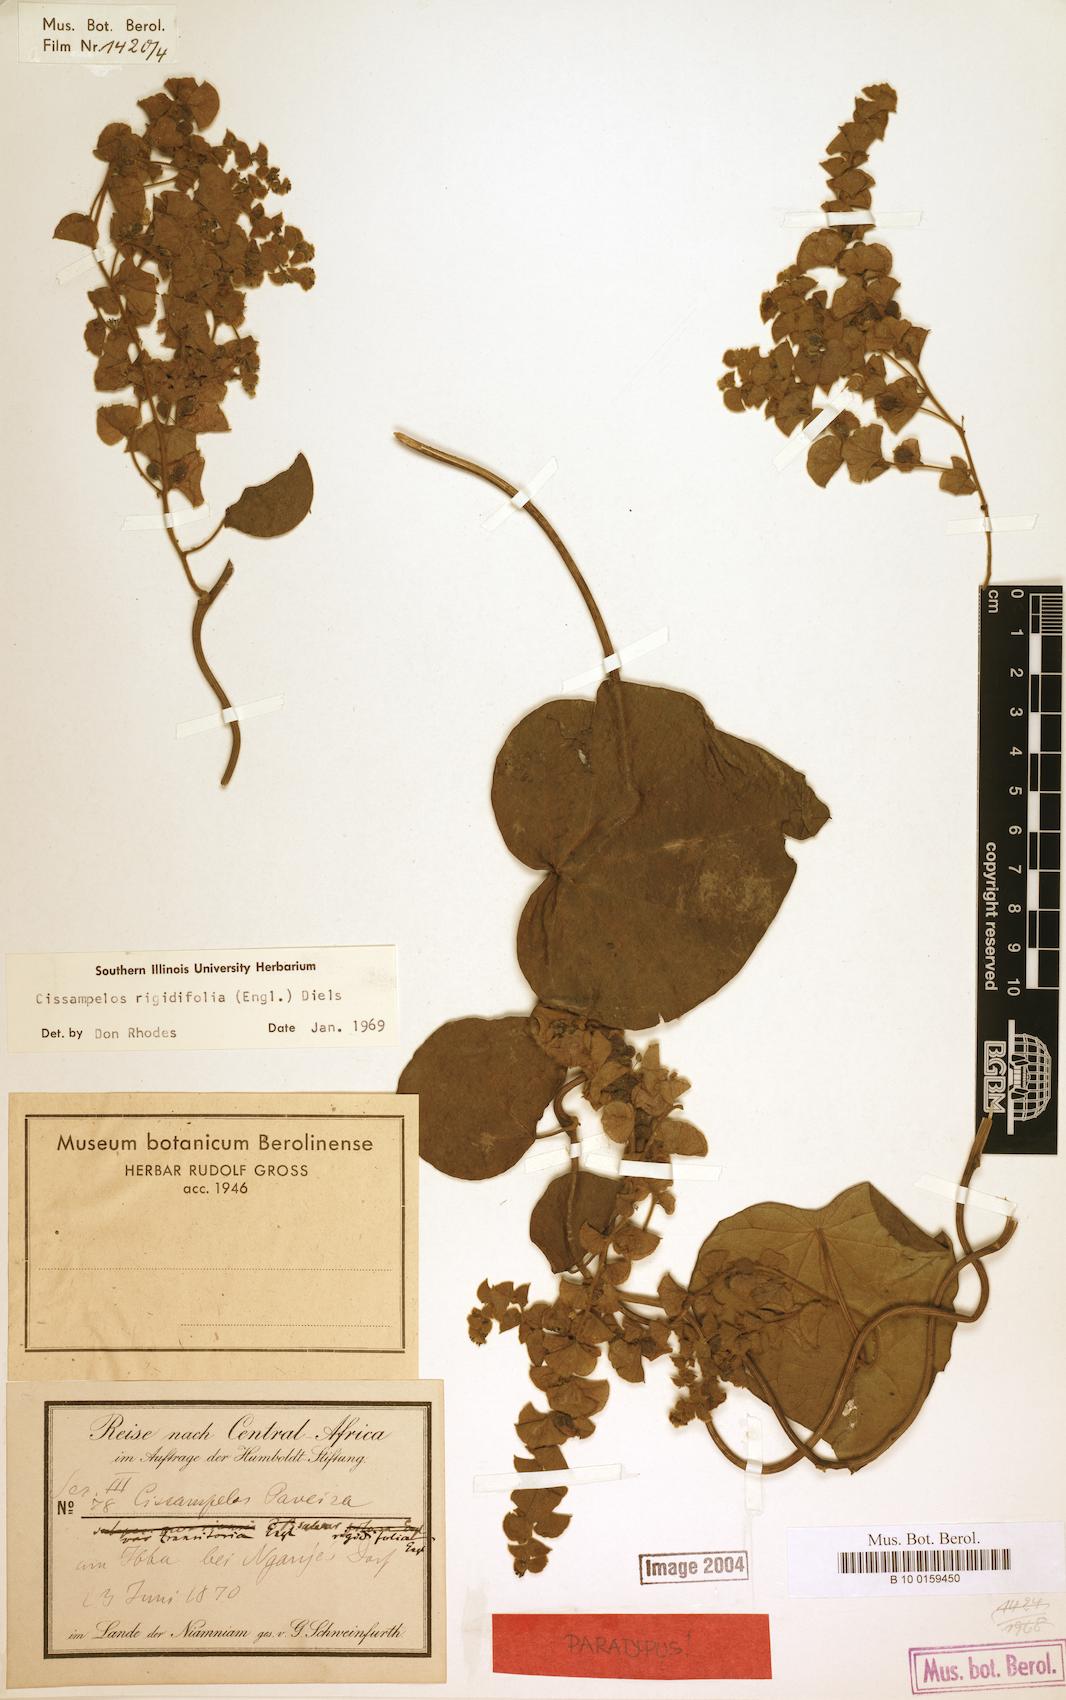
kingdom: Plantae
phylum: Tracheophyta
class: Magnoliopsida
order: Ranunculales
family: Menispermaceae
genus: Cissampelos
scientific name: Cissampelos rigidifolia
